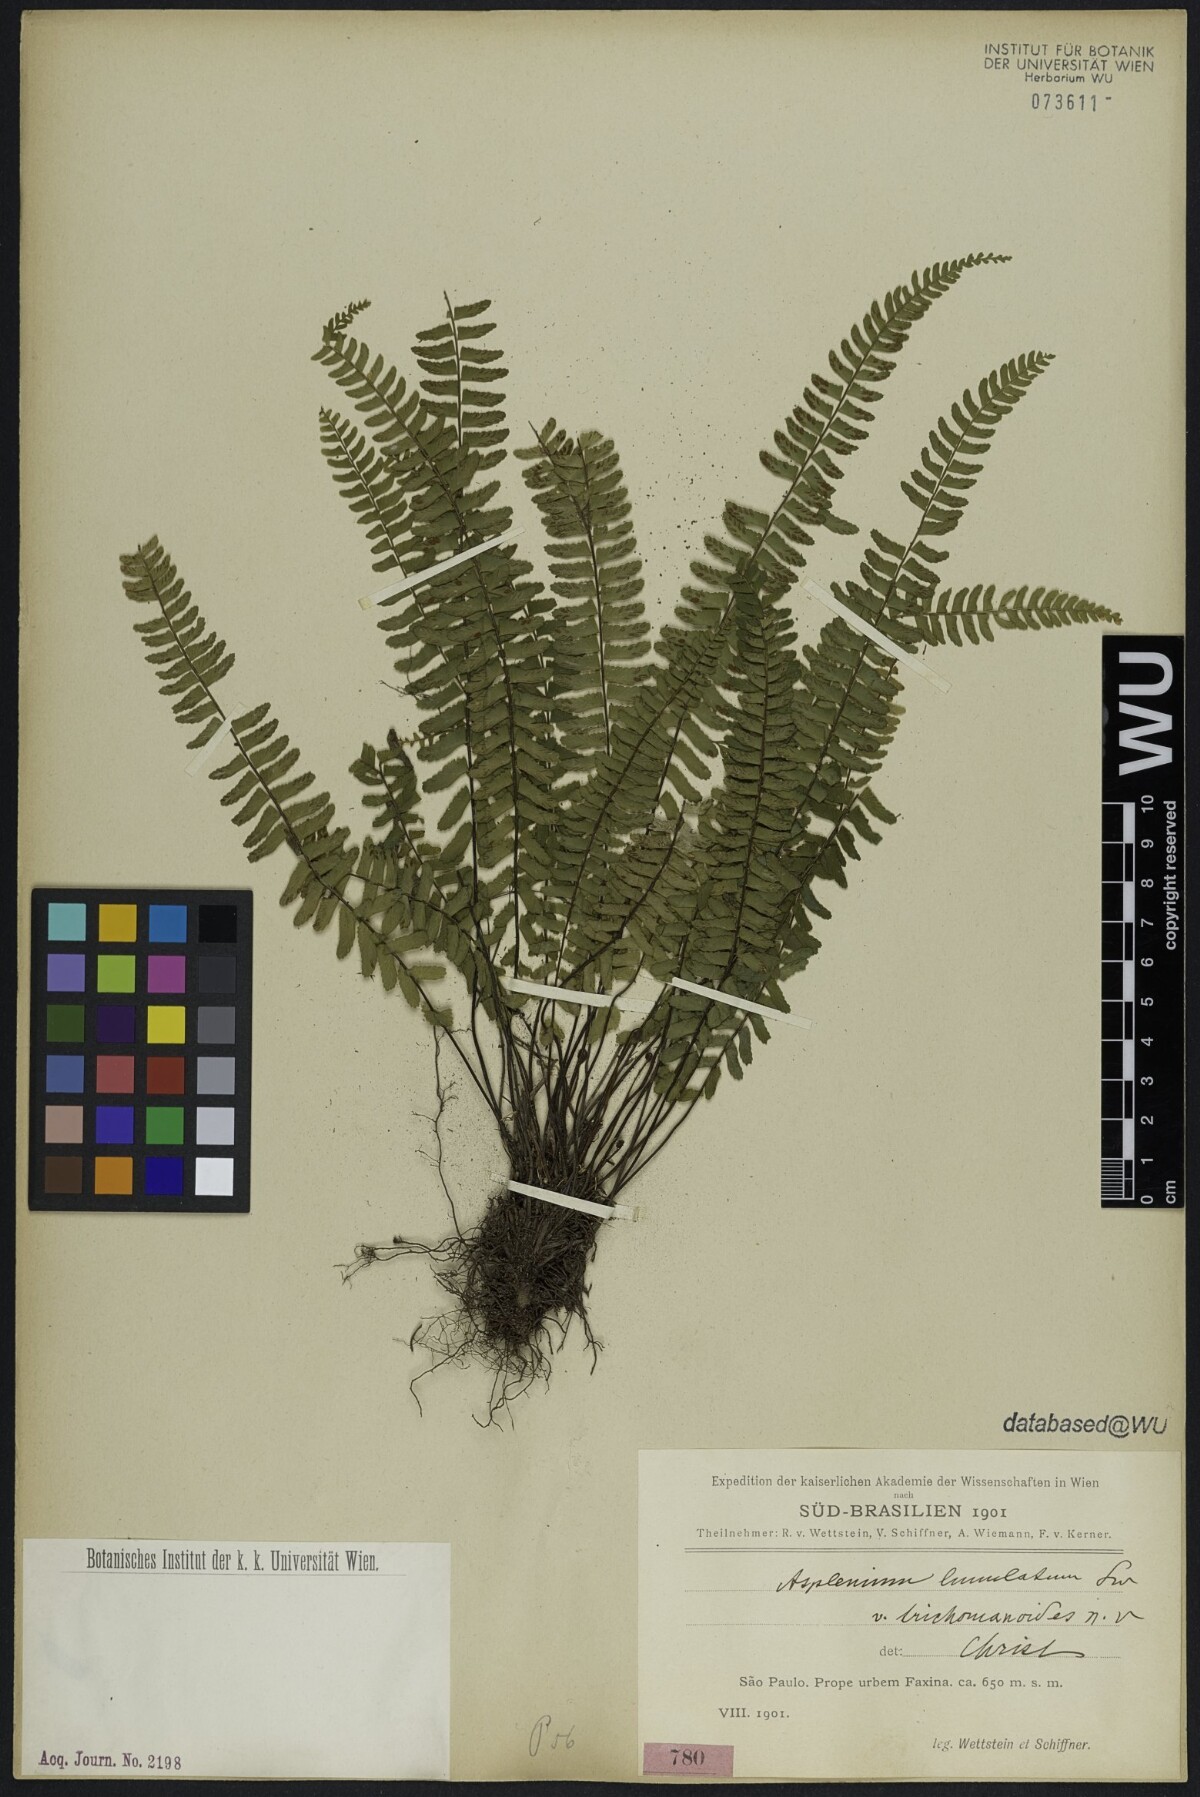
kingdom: Plantae
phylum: Tracheophyta
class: Polypodiopsida
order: Polypodiales
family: Aspleniaceae
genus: Asplenium
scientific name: Asplenium harpeodes
